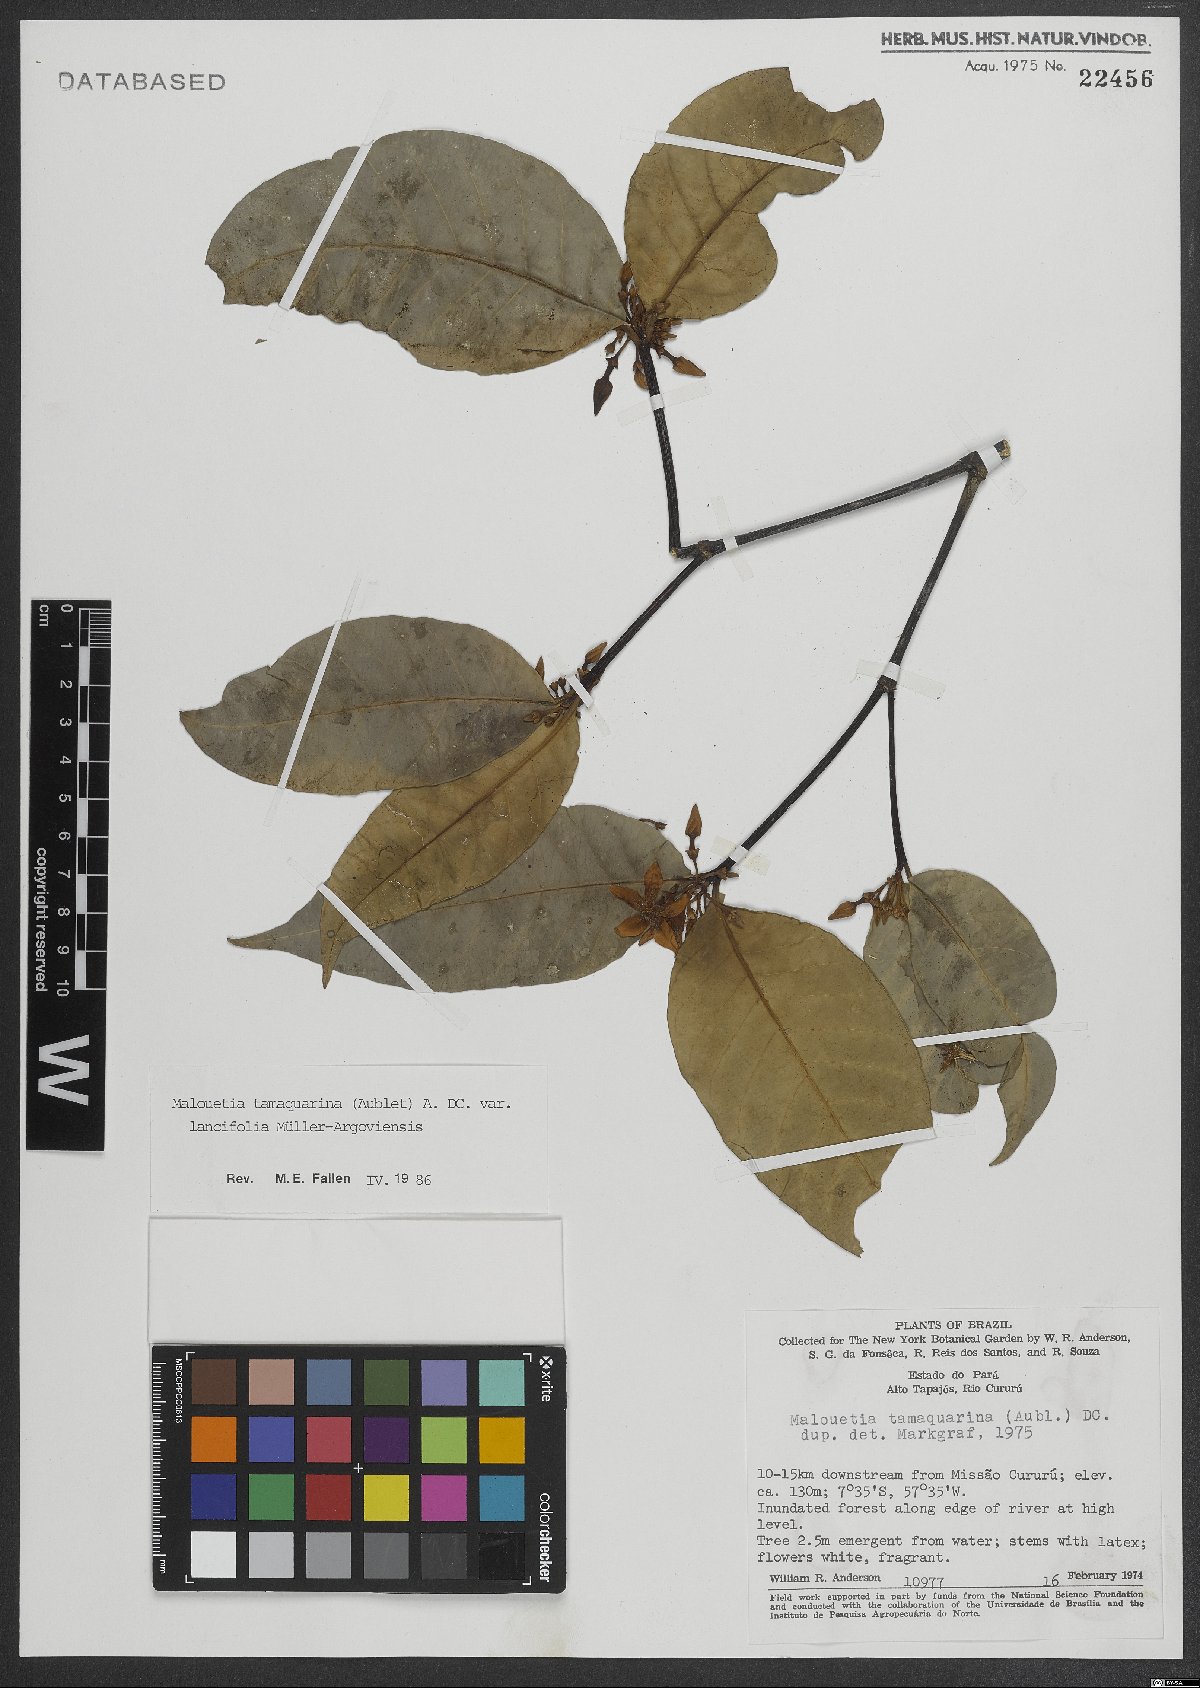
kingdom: Plantae
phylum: Tracheophyta
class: Magnoliopsida
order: Gentianales
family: Apocynaceae
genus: Malouetia
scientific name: Malouetia tamaquarina
